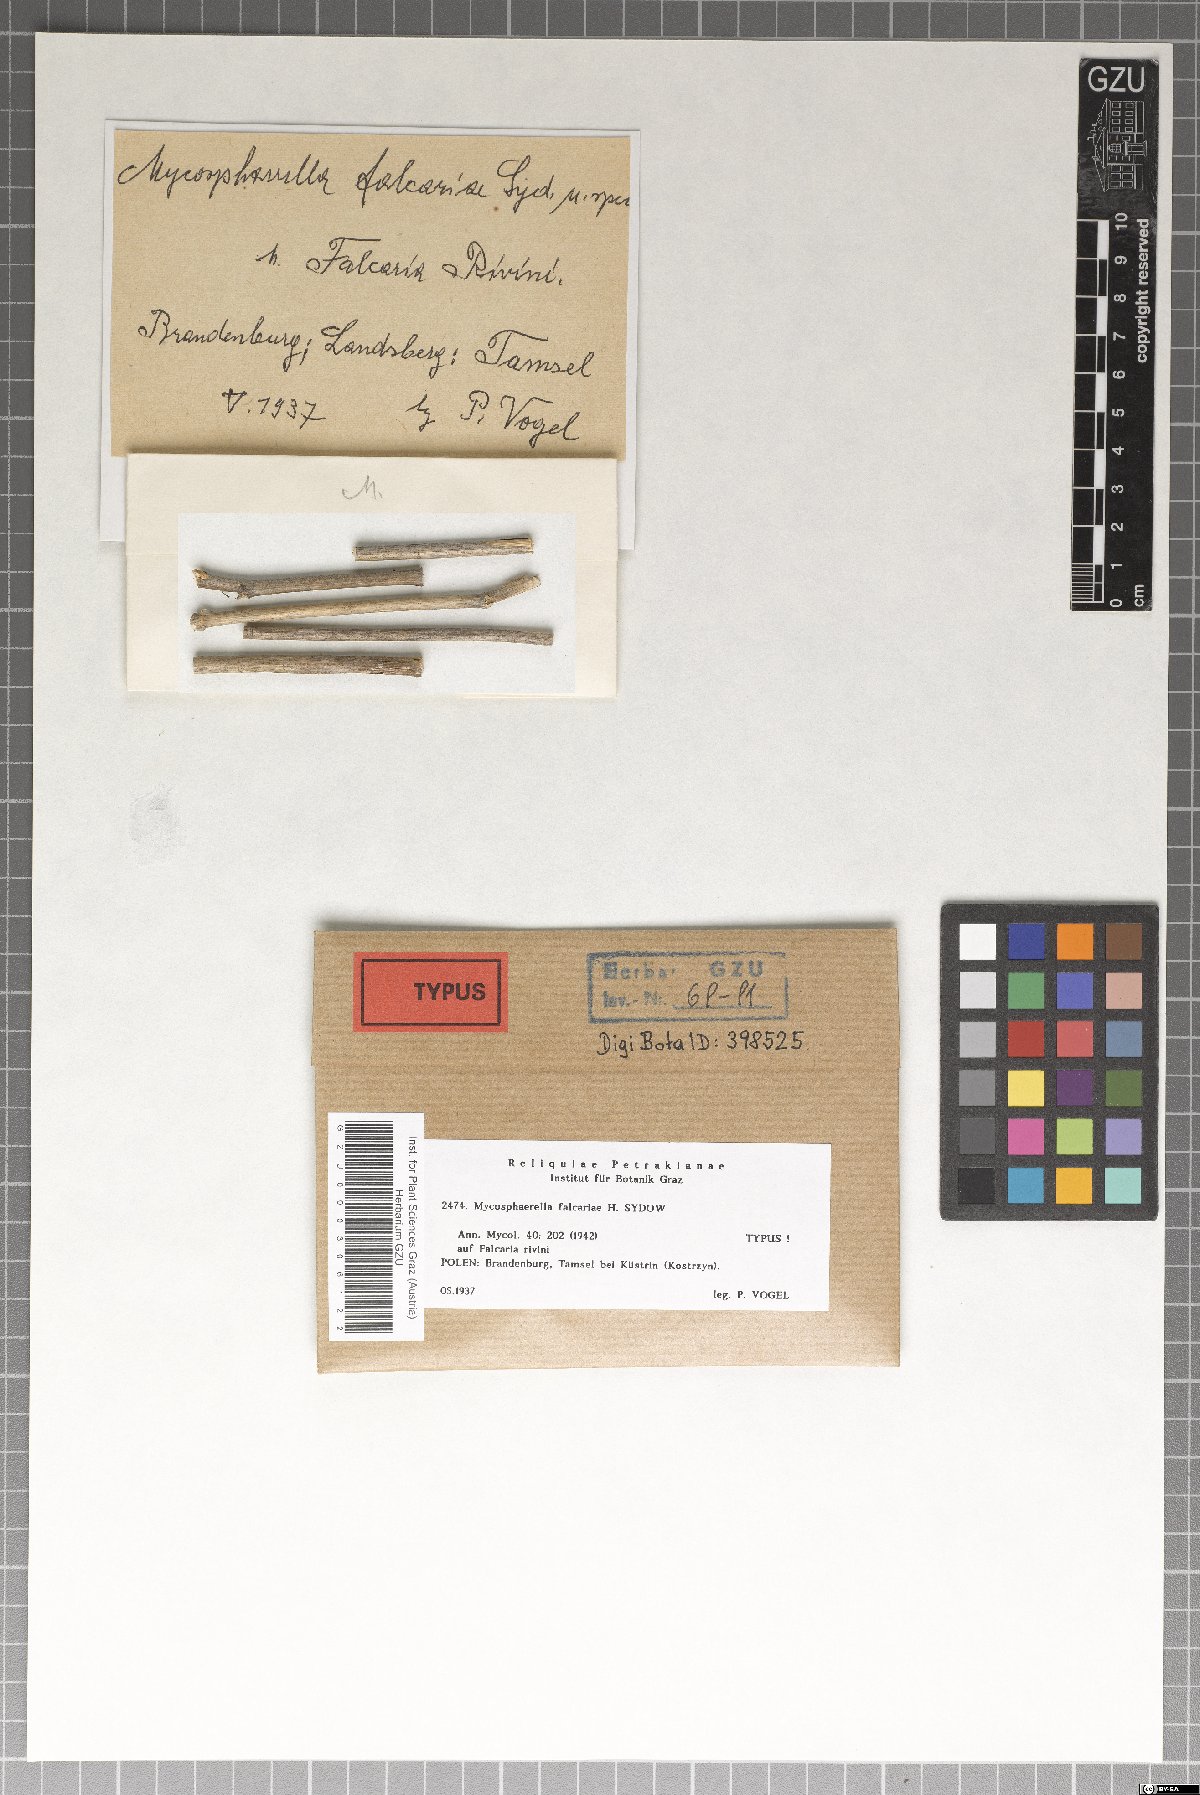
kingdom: Fungi
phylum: Ascomycota
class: Dothideomycetes
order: Mycosphaerellales
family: Mycosphaerellaceae
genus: Mycosphaerella
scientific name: Mycosphaerella falcariae
